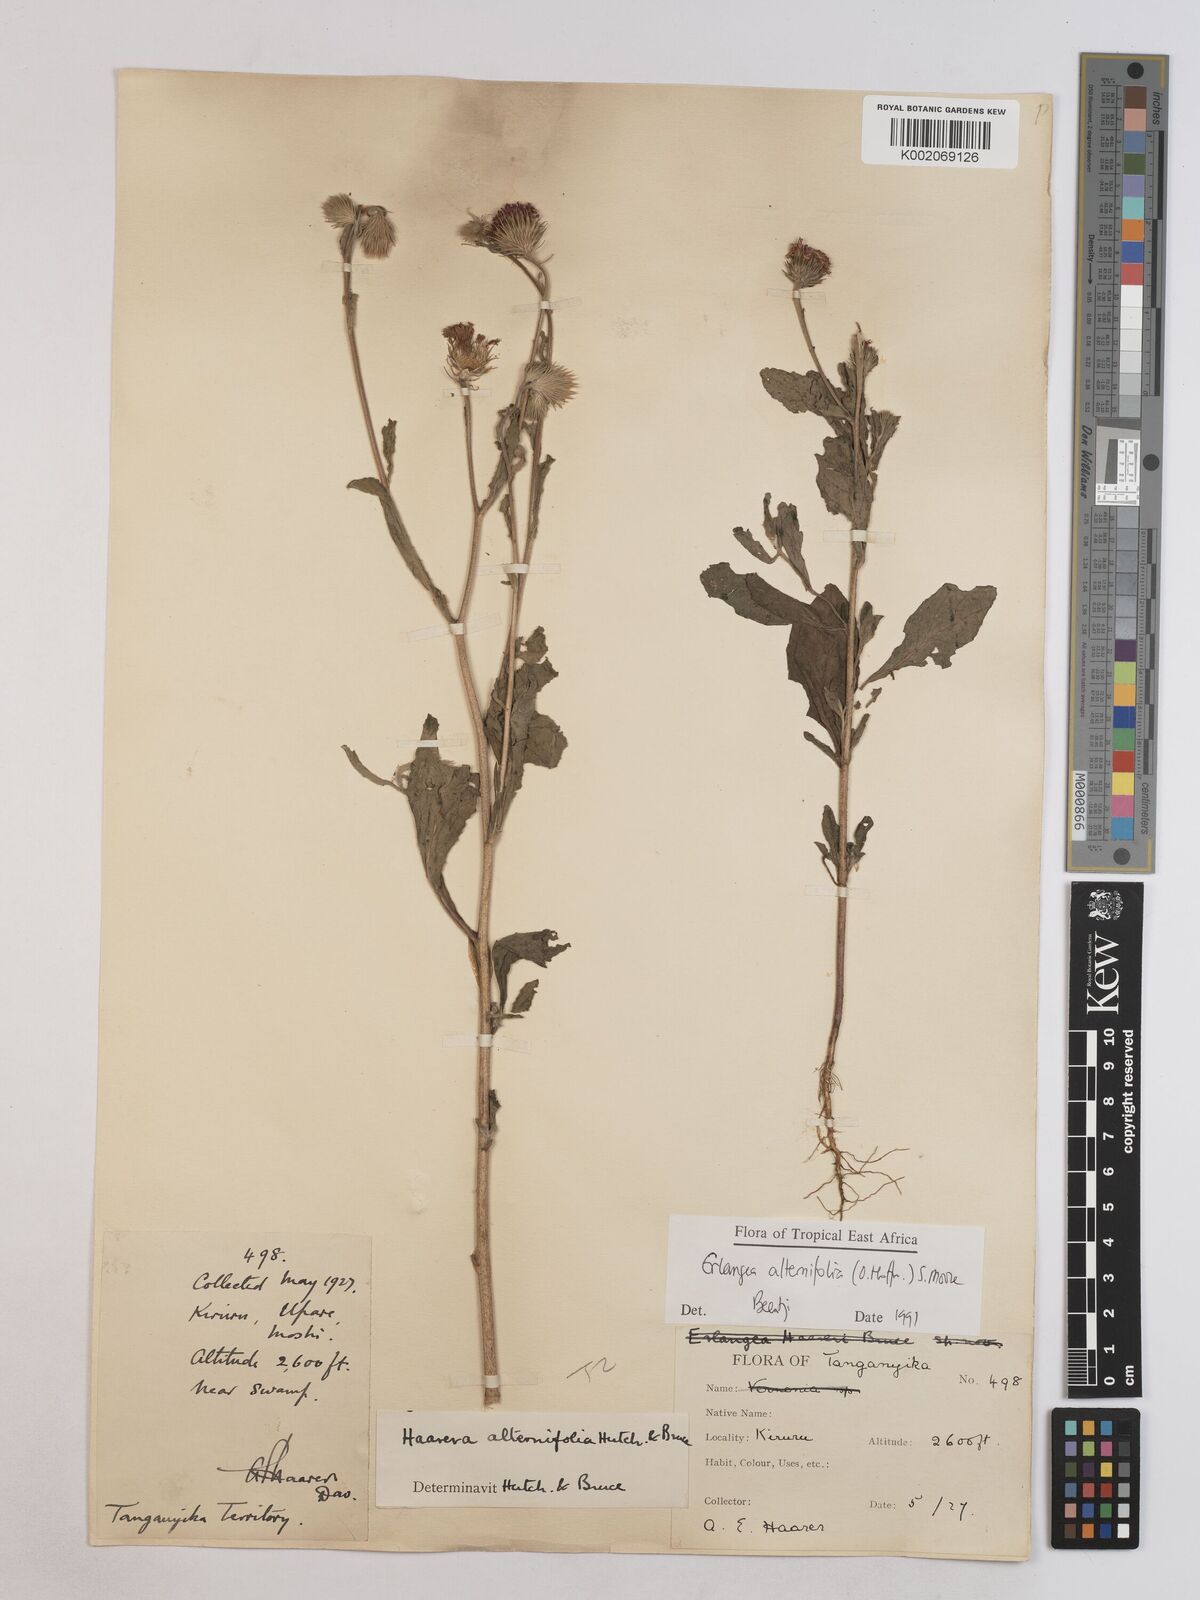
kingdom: Plantae
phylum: Tracheophyta
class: Magnoliopsida
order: Asterales
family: Asteraceae
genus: Erlangea
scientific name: Erlangea alternifolia
